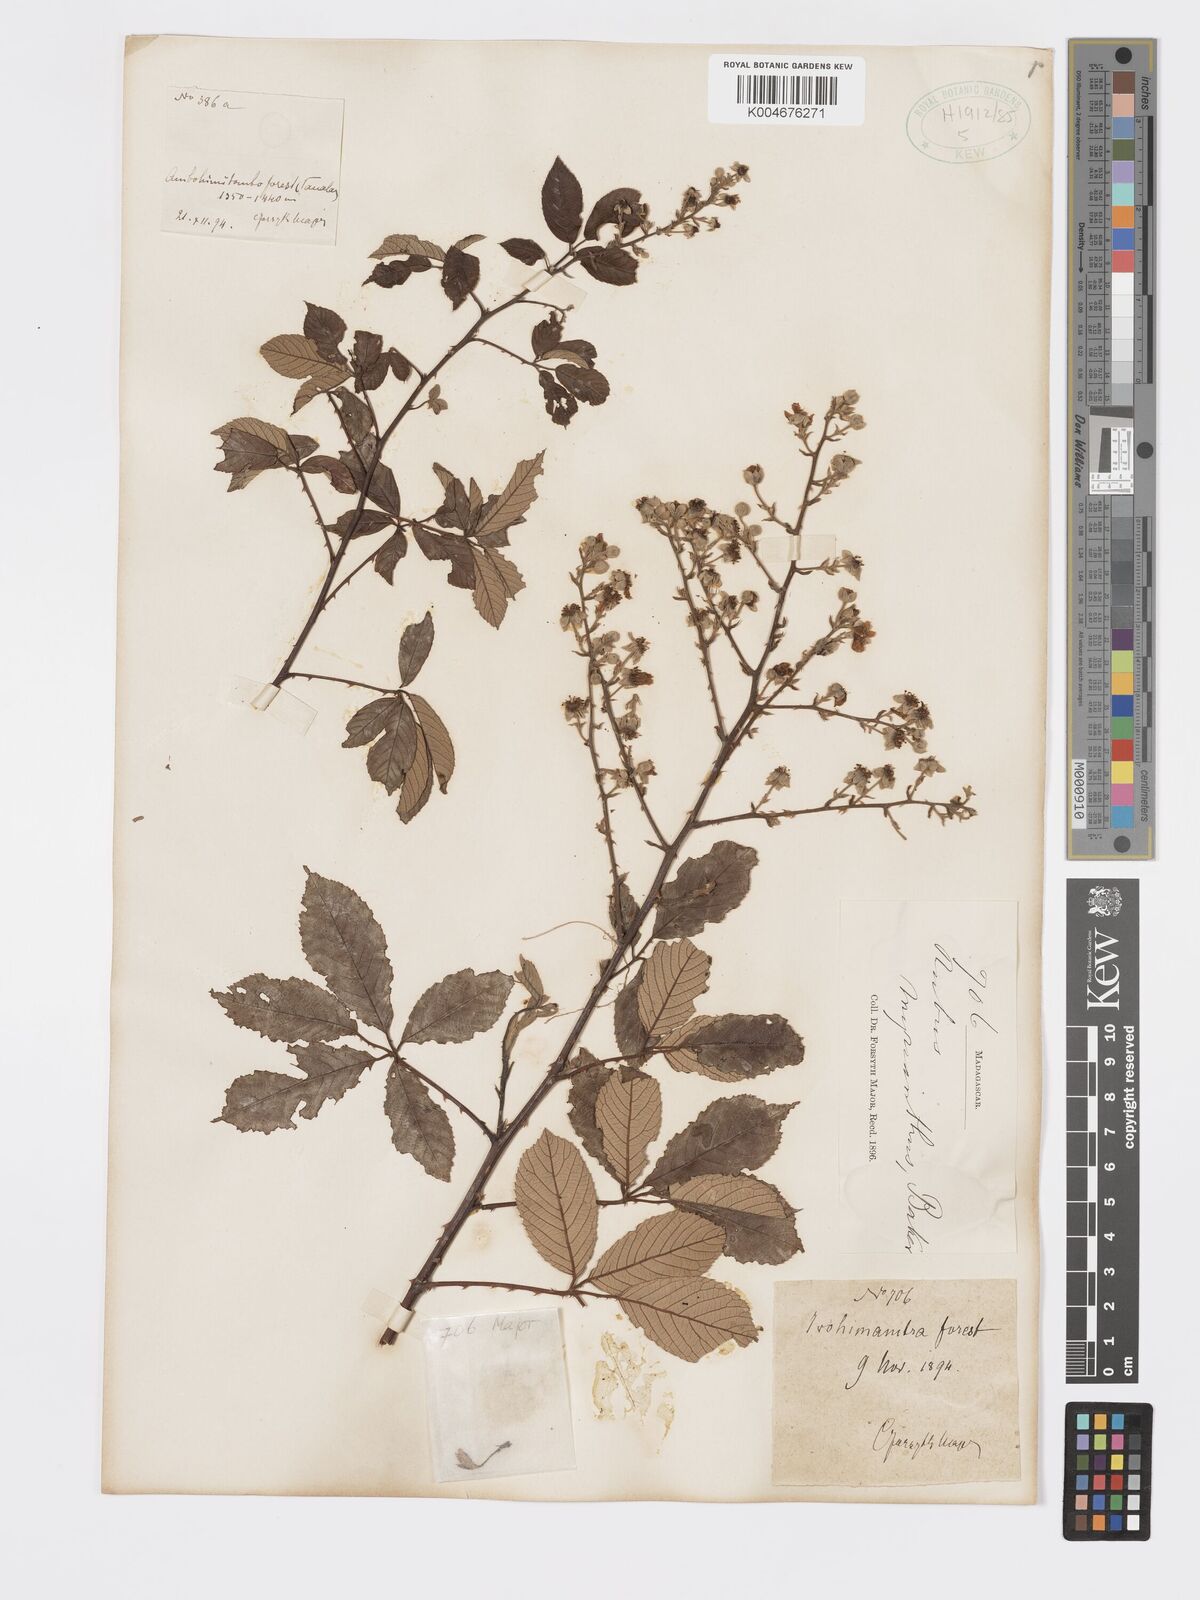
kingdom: Plantae
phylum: Tracheophyta
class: Magnoliopsida
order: Rosales
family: Rosaceae
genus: Rubus
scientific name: Rubus
